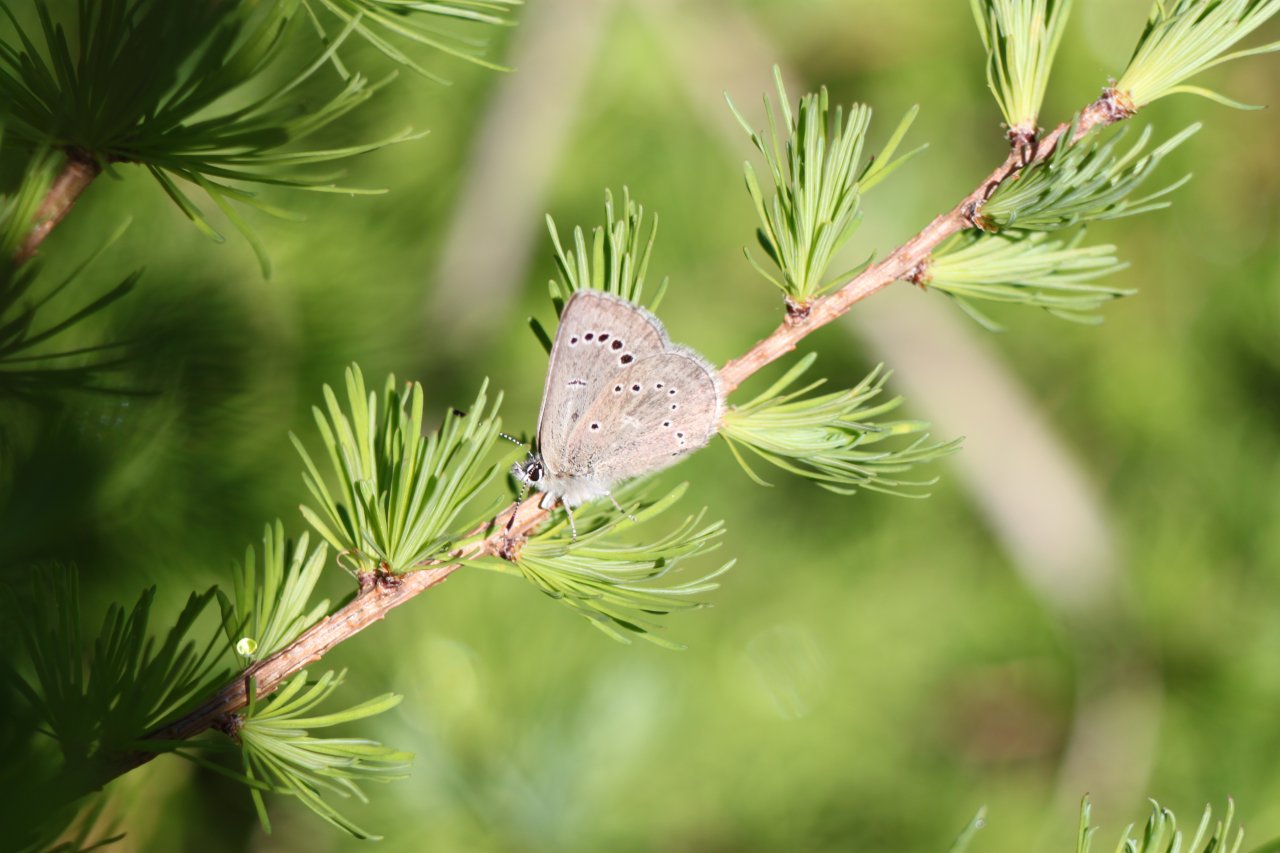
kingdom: Animalia
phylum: Arthropoda
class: Insecta
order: Lepidoptera
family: Lycaenidae
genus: Glaucopsyche
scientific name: Glaucopsyche lygdamus
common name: Silvery Blue
